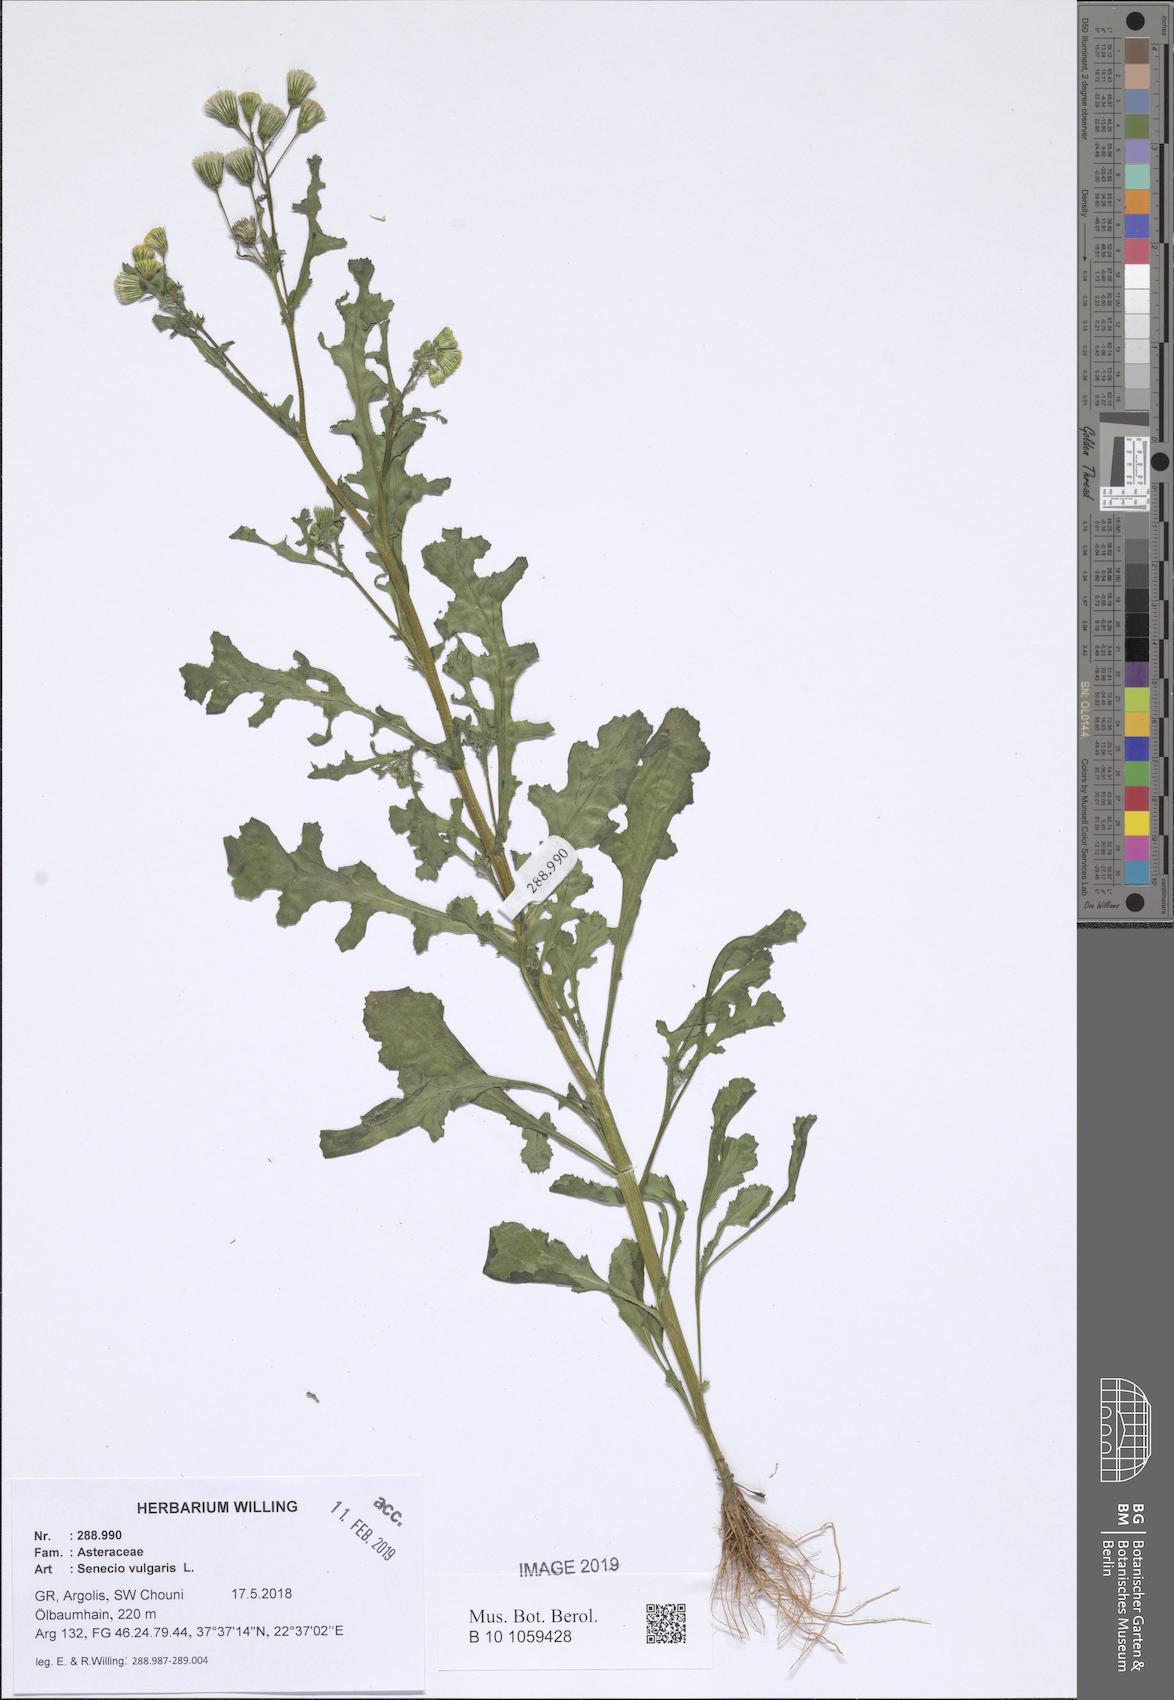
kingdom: Plantae
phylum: Tracheophyta
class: Magnoliopsida
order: Asterales
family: Asteraceae
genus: Senecio
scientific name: Senecio vulgaris
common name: Old-man-in-the-spring
